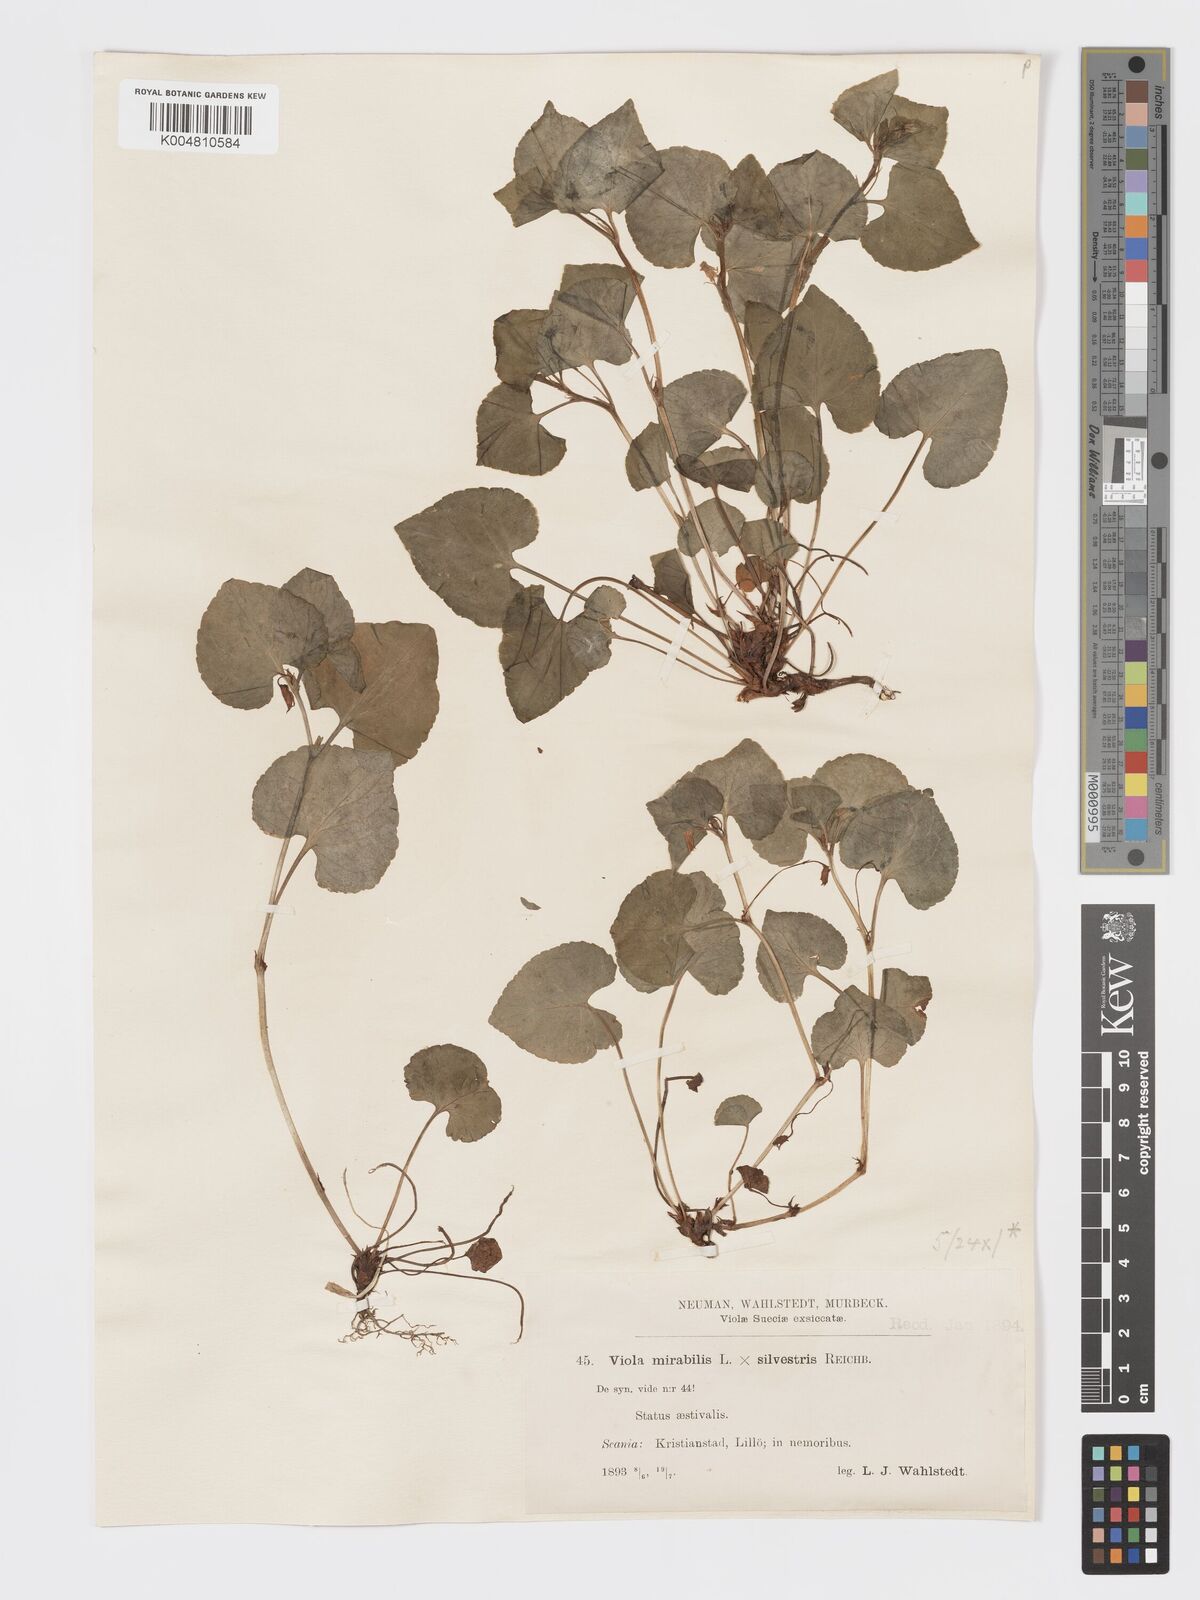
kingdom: Plantae
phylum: Tracheophyta
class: Magnoliopsida
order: Malpighiales
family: Violaceae
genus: Viola
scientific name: Viola mirabilis
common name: Wonder violet
